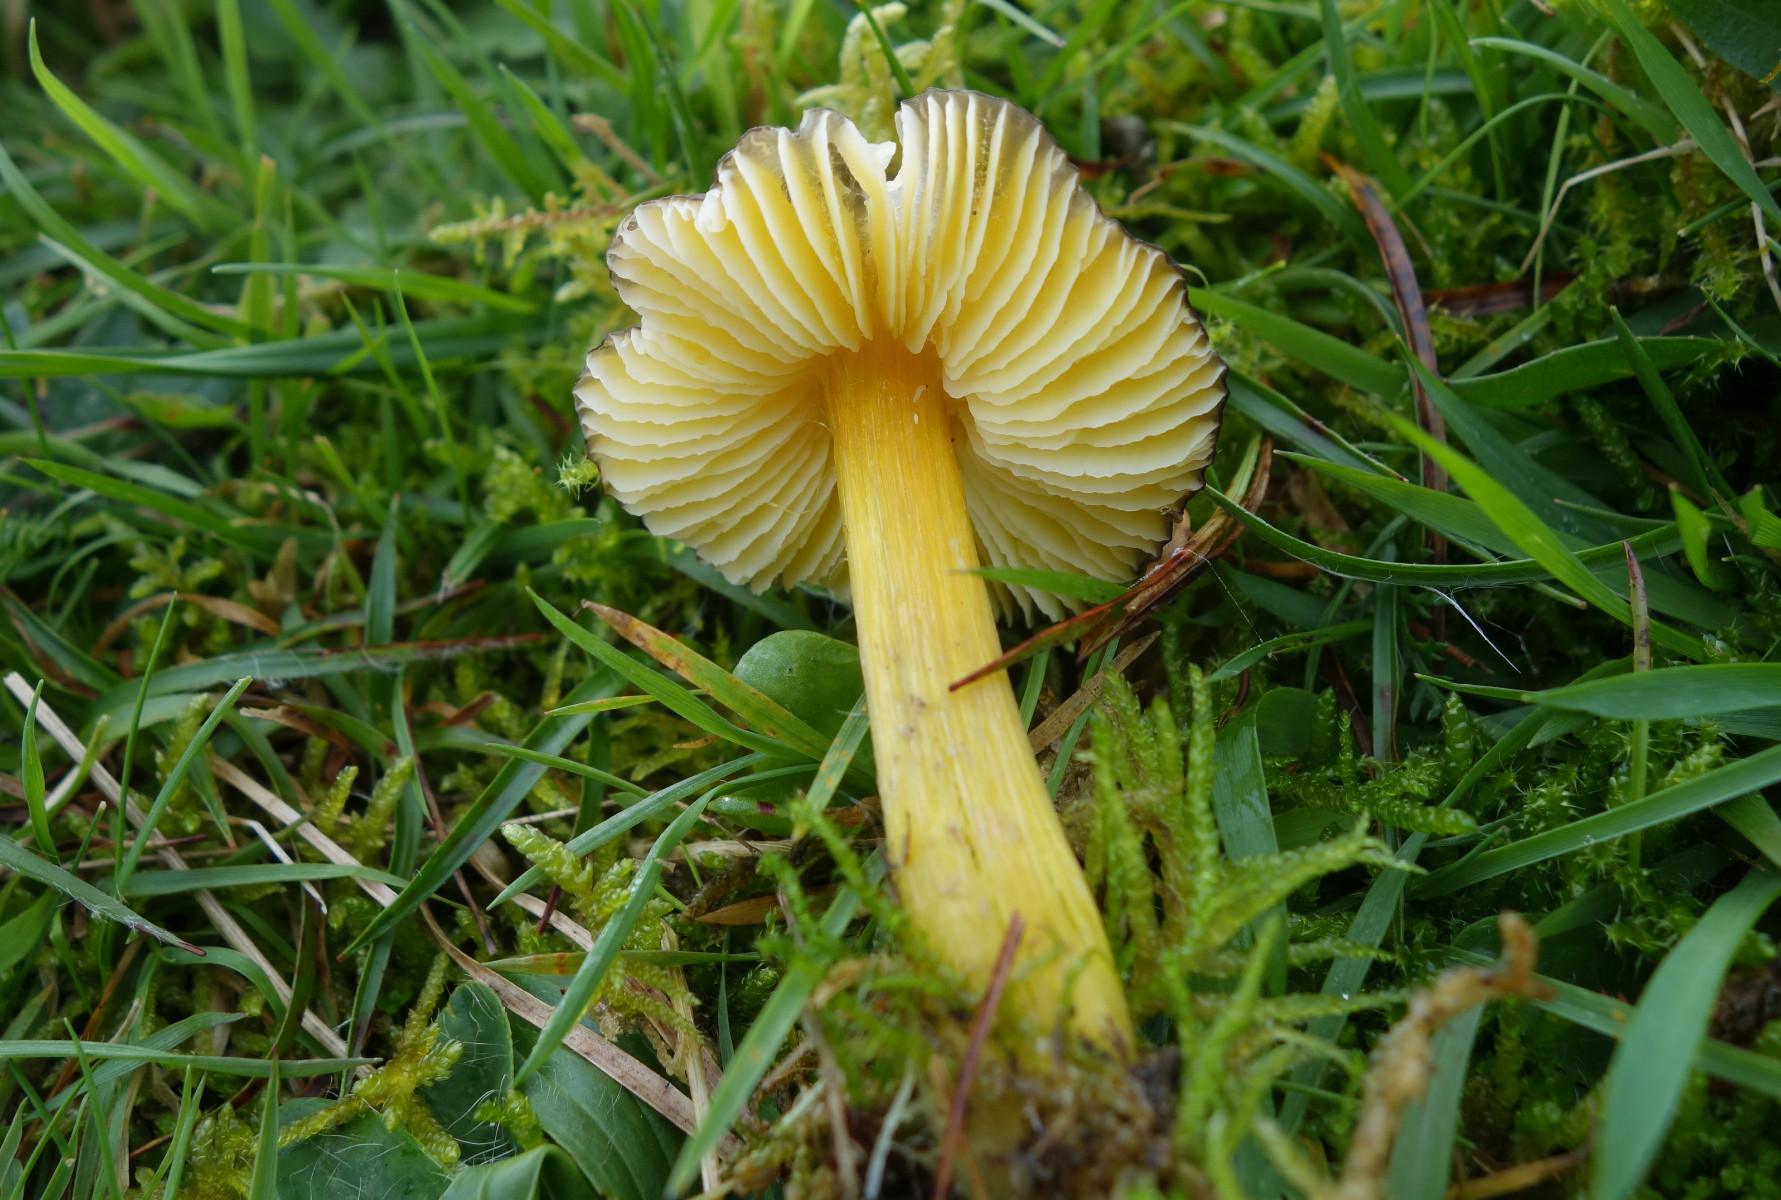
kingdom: Fungi
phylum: Basidiomycota
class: Agaricomycetes
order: Agaricales
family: Hygrophoraceae
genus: Hygrocybe
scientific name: Hygrocybe spadicea
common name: daddelbrun vokshat
